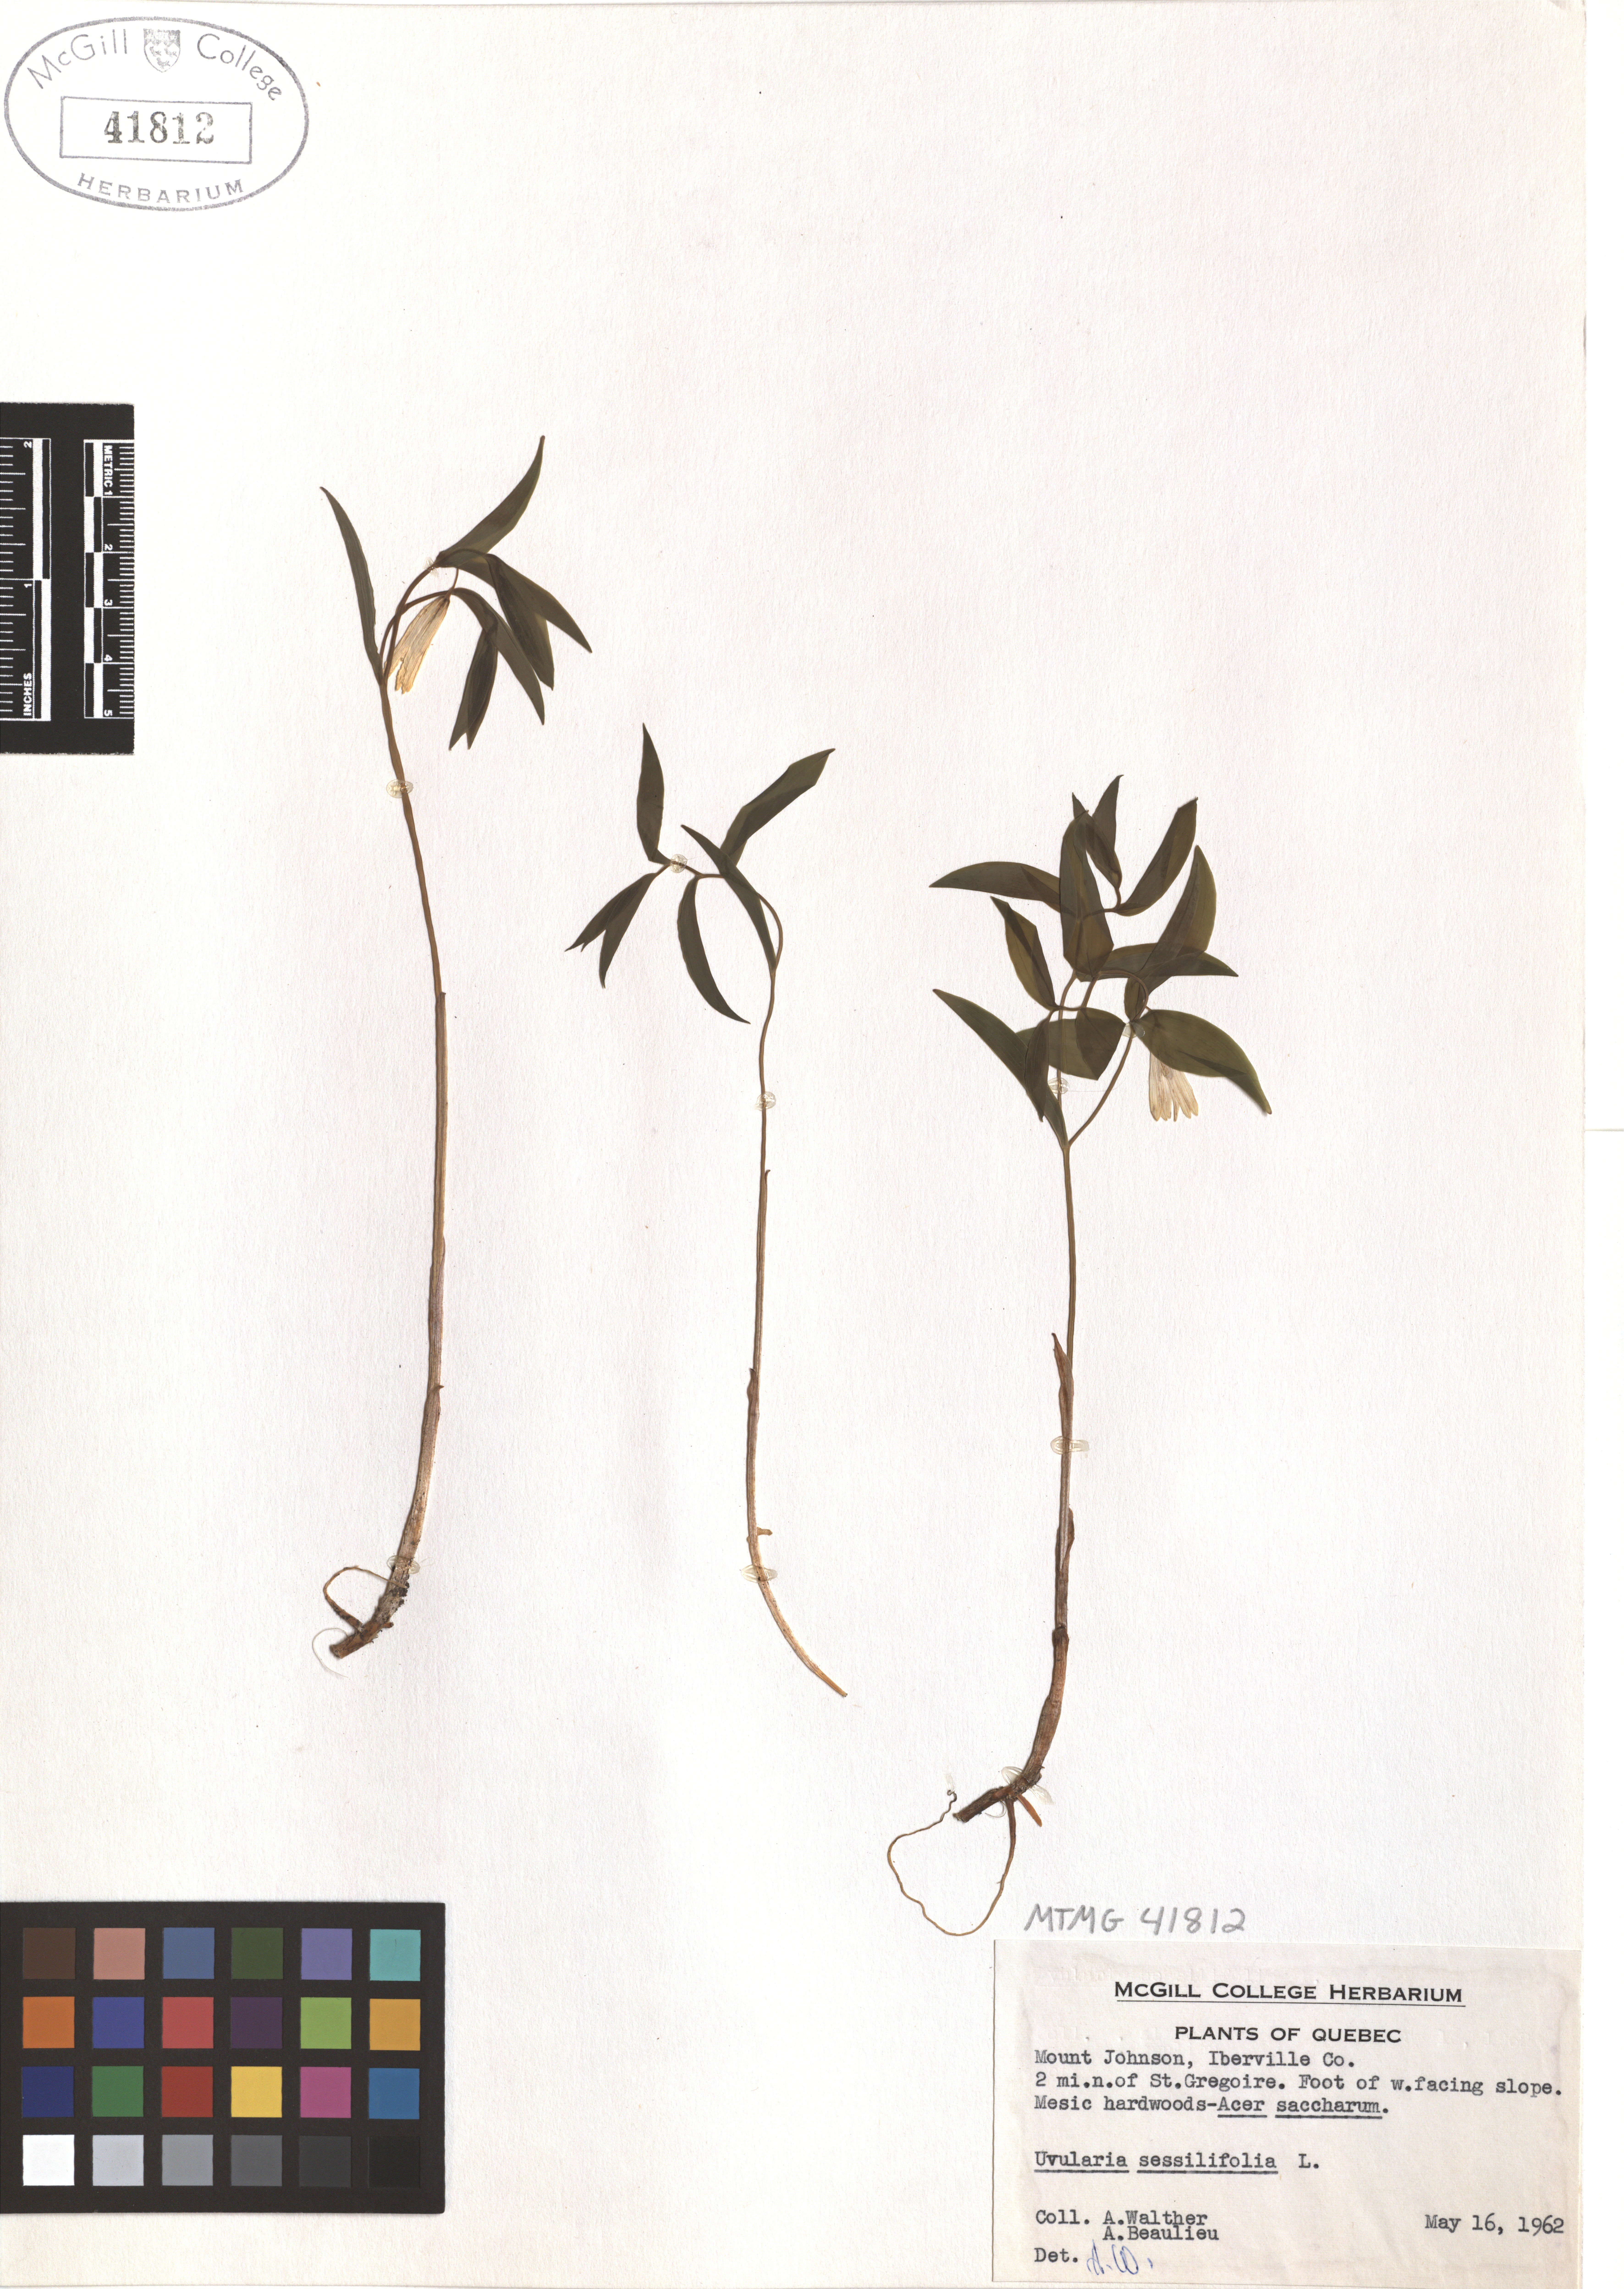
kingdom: Plantae
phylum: Tracheophyta
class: Liliopsida
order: Liliales
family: Colchicaceae
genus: Uvularia
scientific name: Uvularia sessilifolia
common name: Straw-lily
